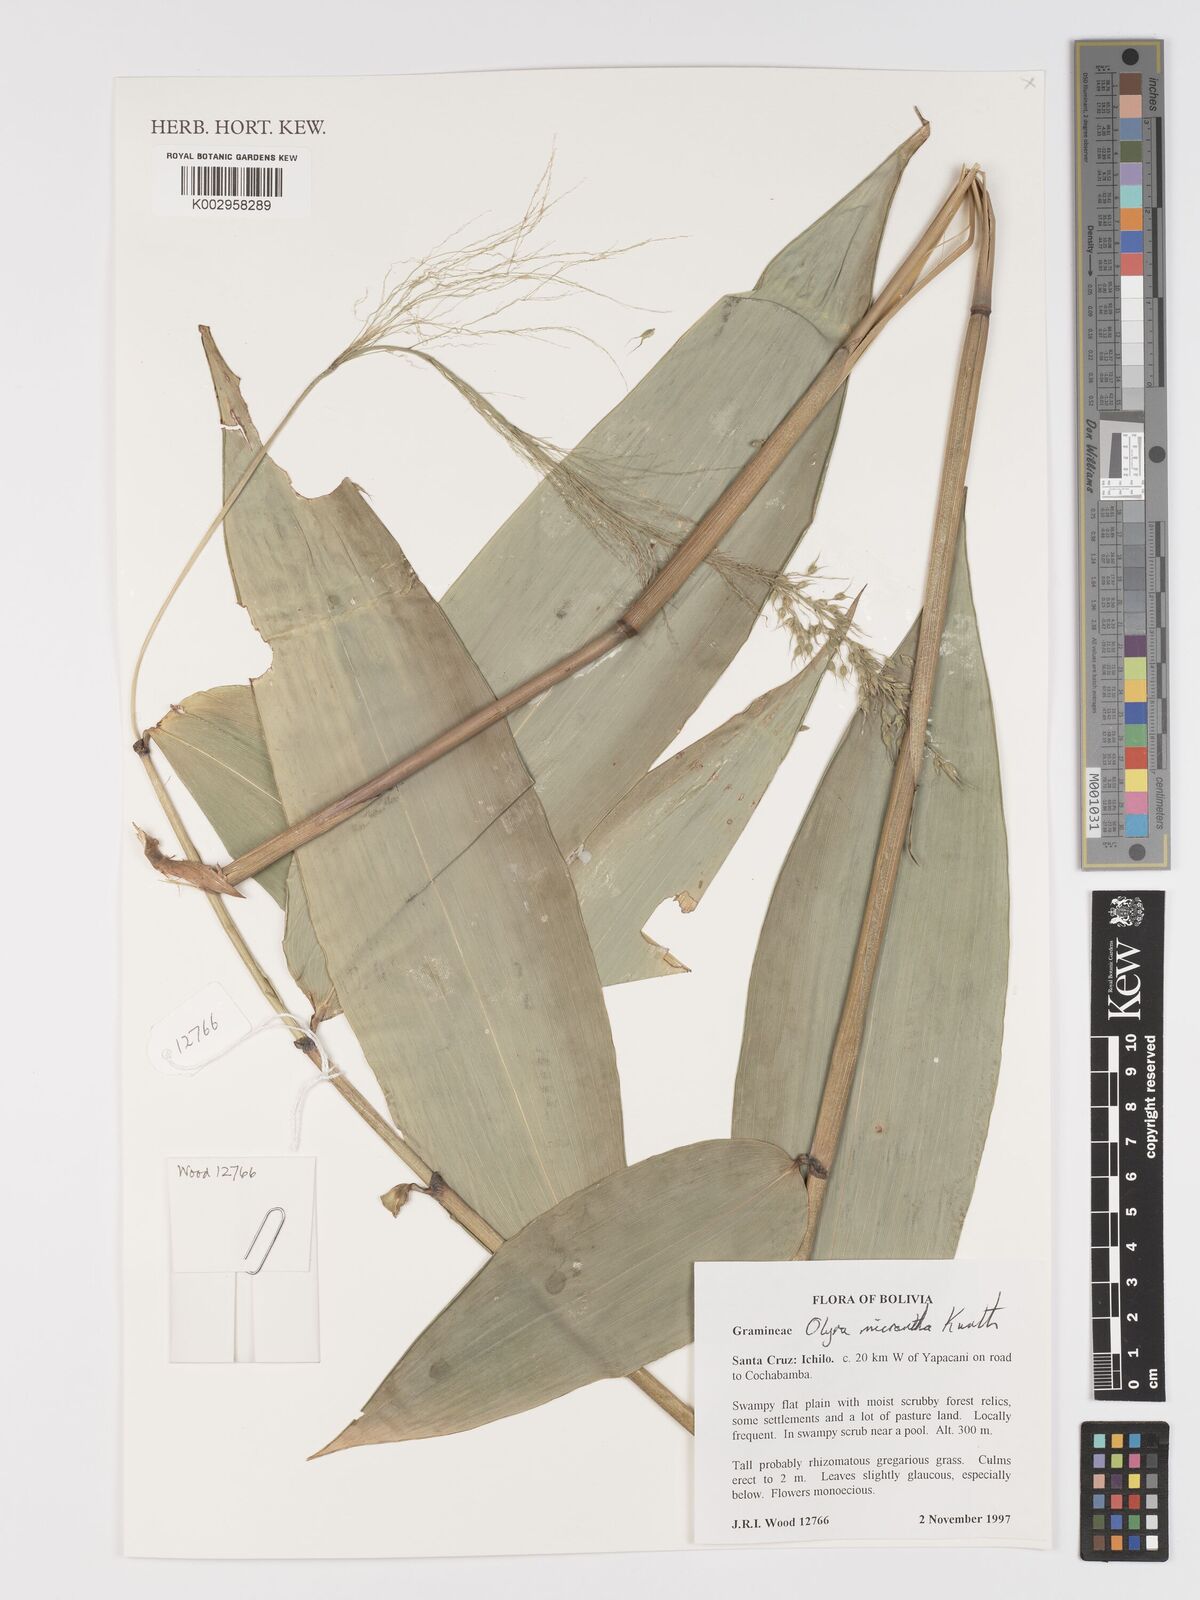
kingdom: Plantae
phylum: Tracheophyta
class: Liliopsida
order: Poales
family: Poaceae
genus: Taquara
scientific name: Taquara micrantha
